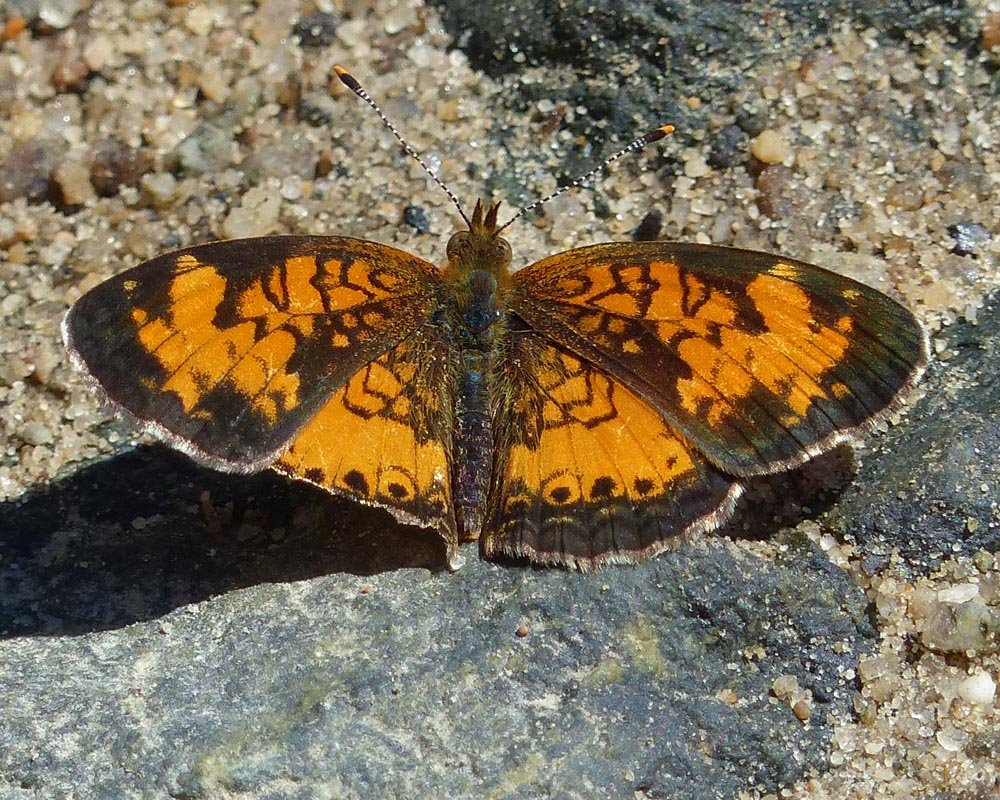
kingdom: Animalia
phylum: Arthropoda
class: Insecta
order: Lepidoptera
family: Nymphalidae
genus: Phyciodes
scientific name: Phyciodes tharos
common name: Northern Crescent
